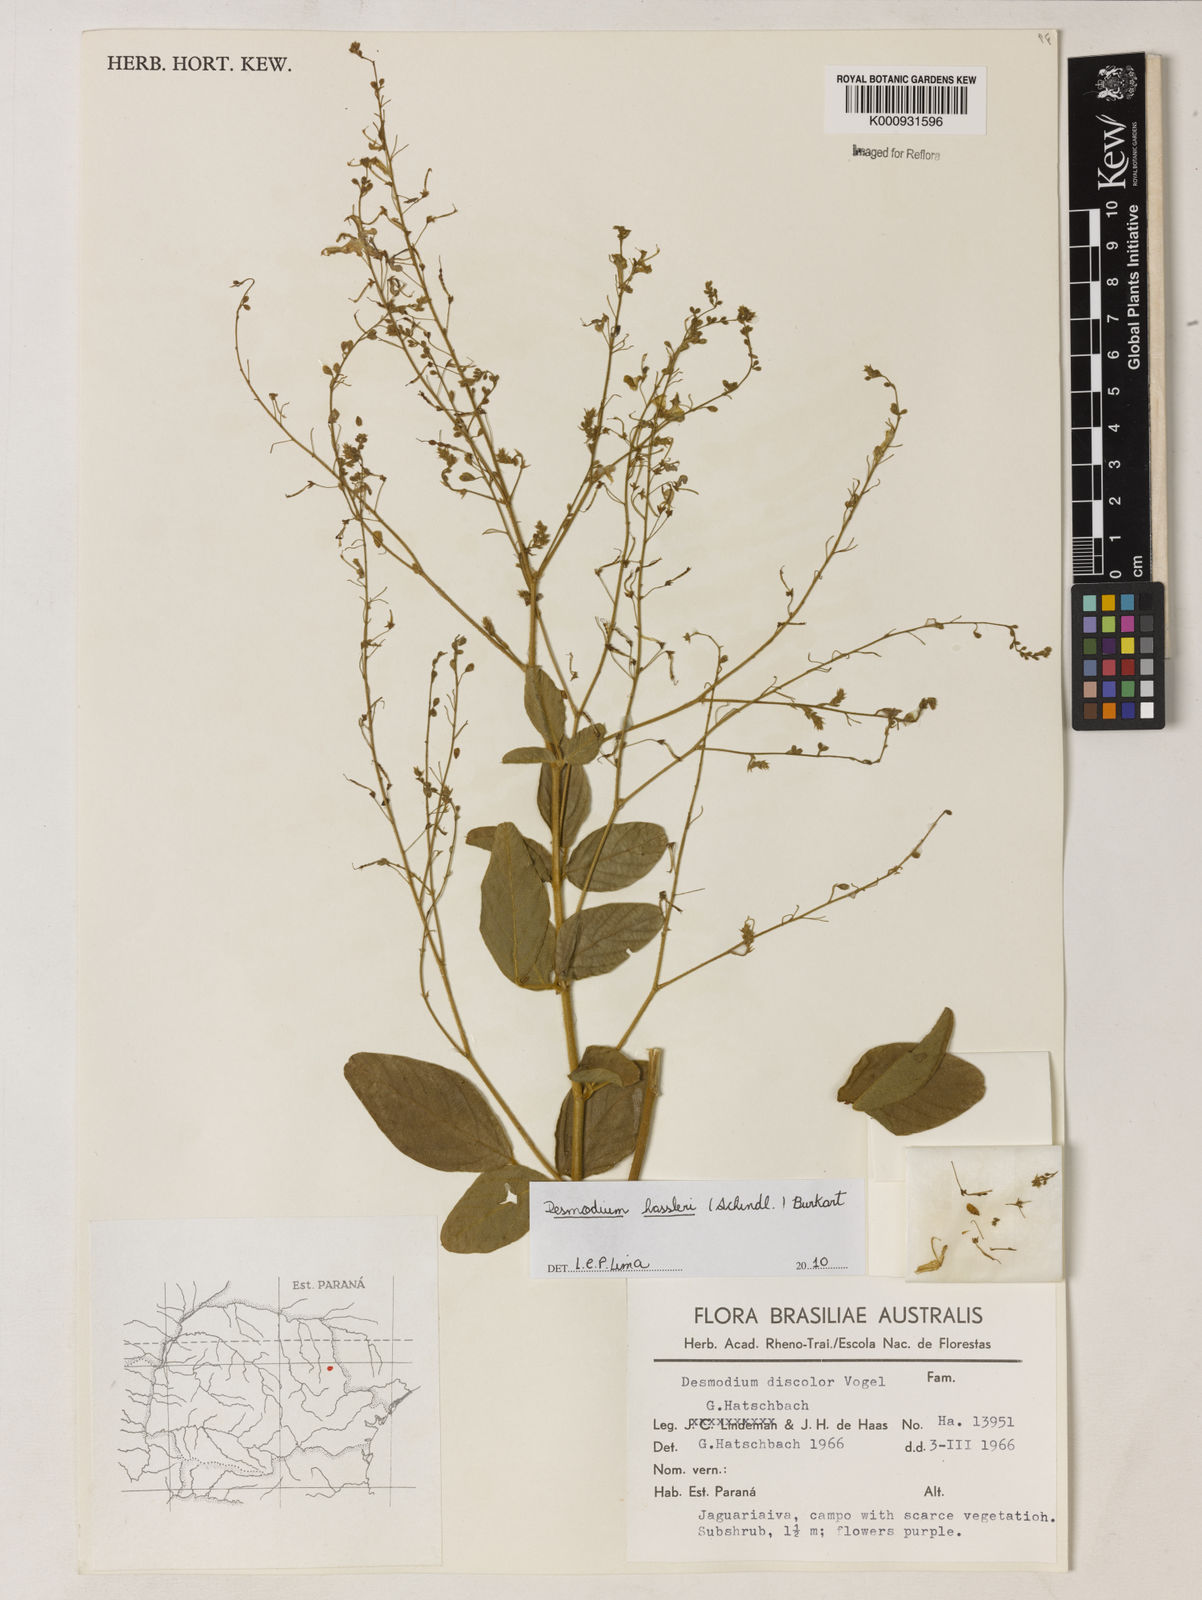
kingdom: Plantae
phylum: Tracheophyta
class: Magnoliopsida
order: Fabales
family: Fabaceae
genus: Desmodium
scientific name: Desmodium leiocarpum
